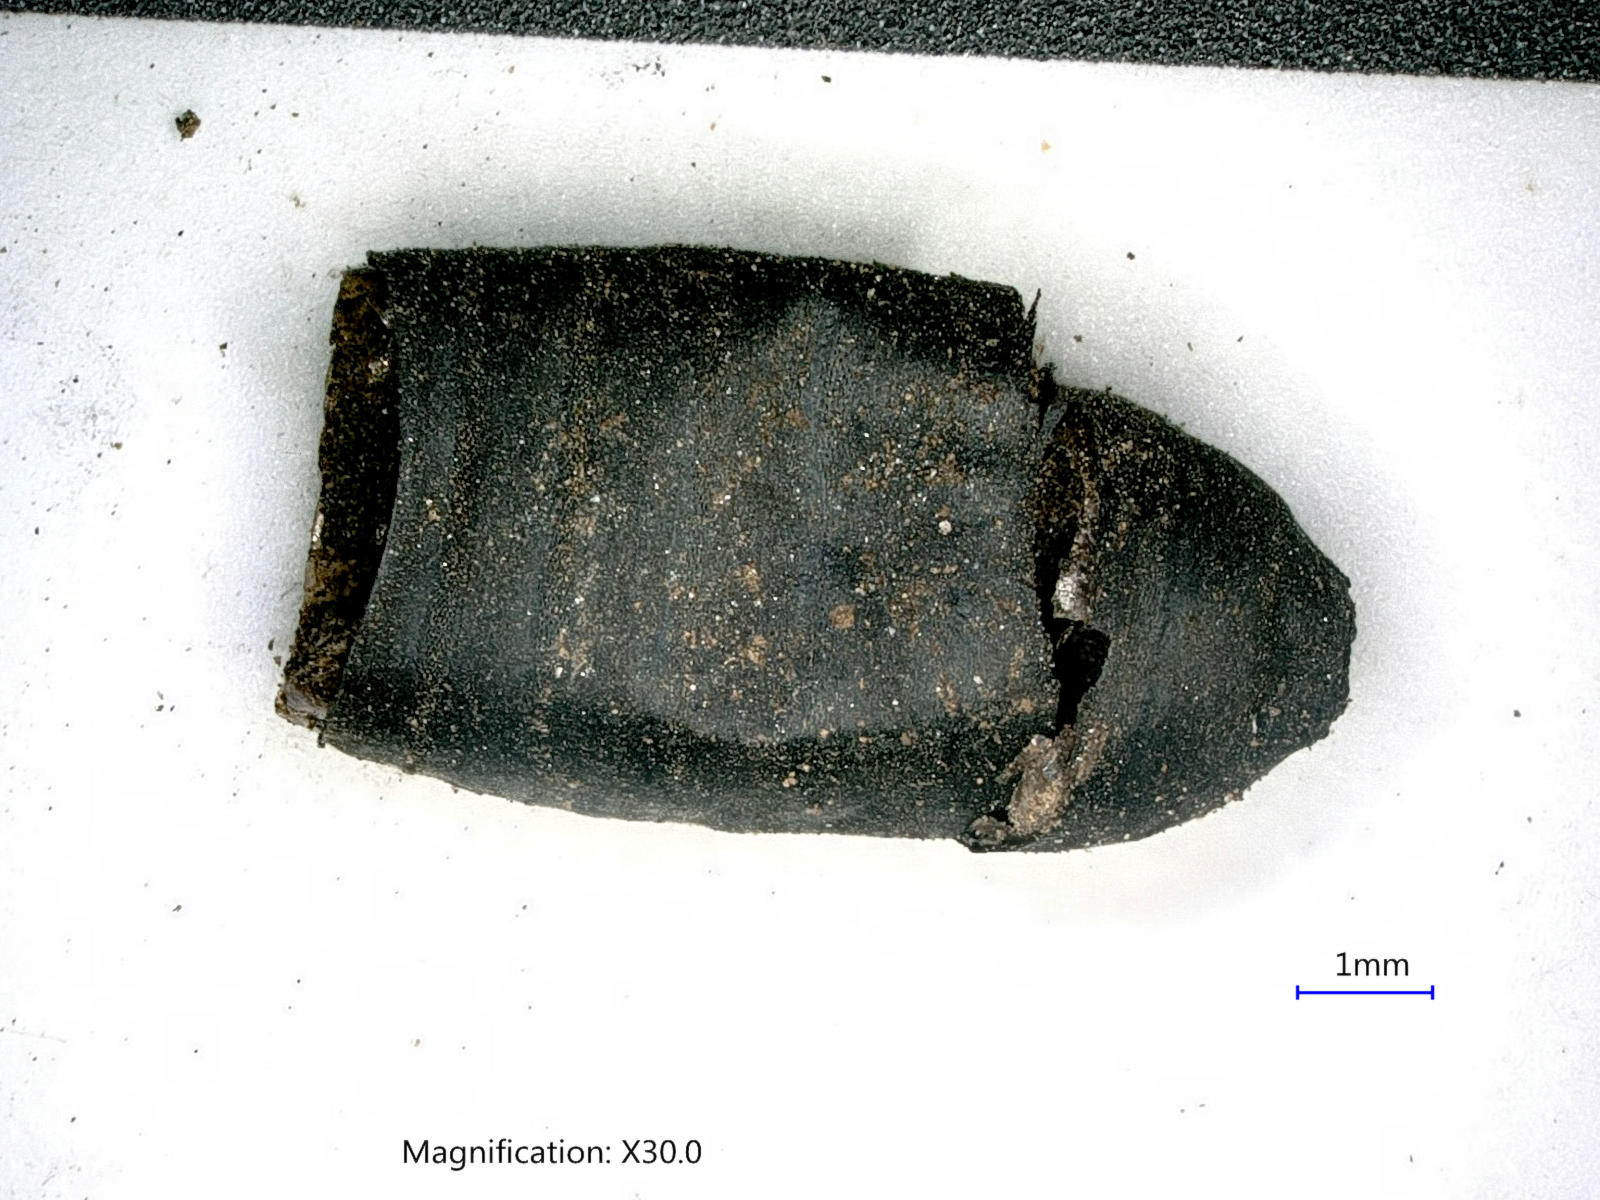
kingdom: Animalia
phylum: Arthropoda
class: Insecta
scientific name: Insecta
